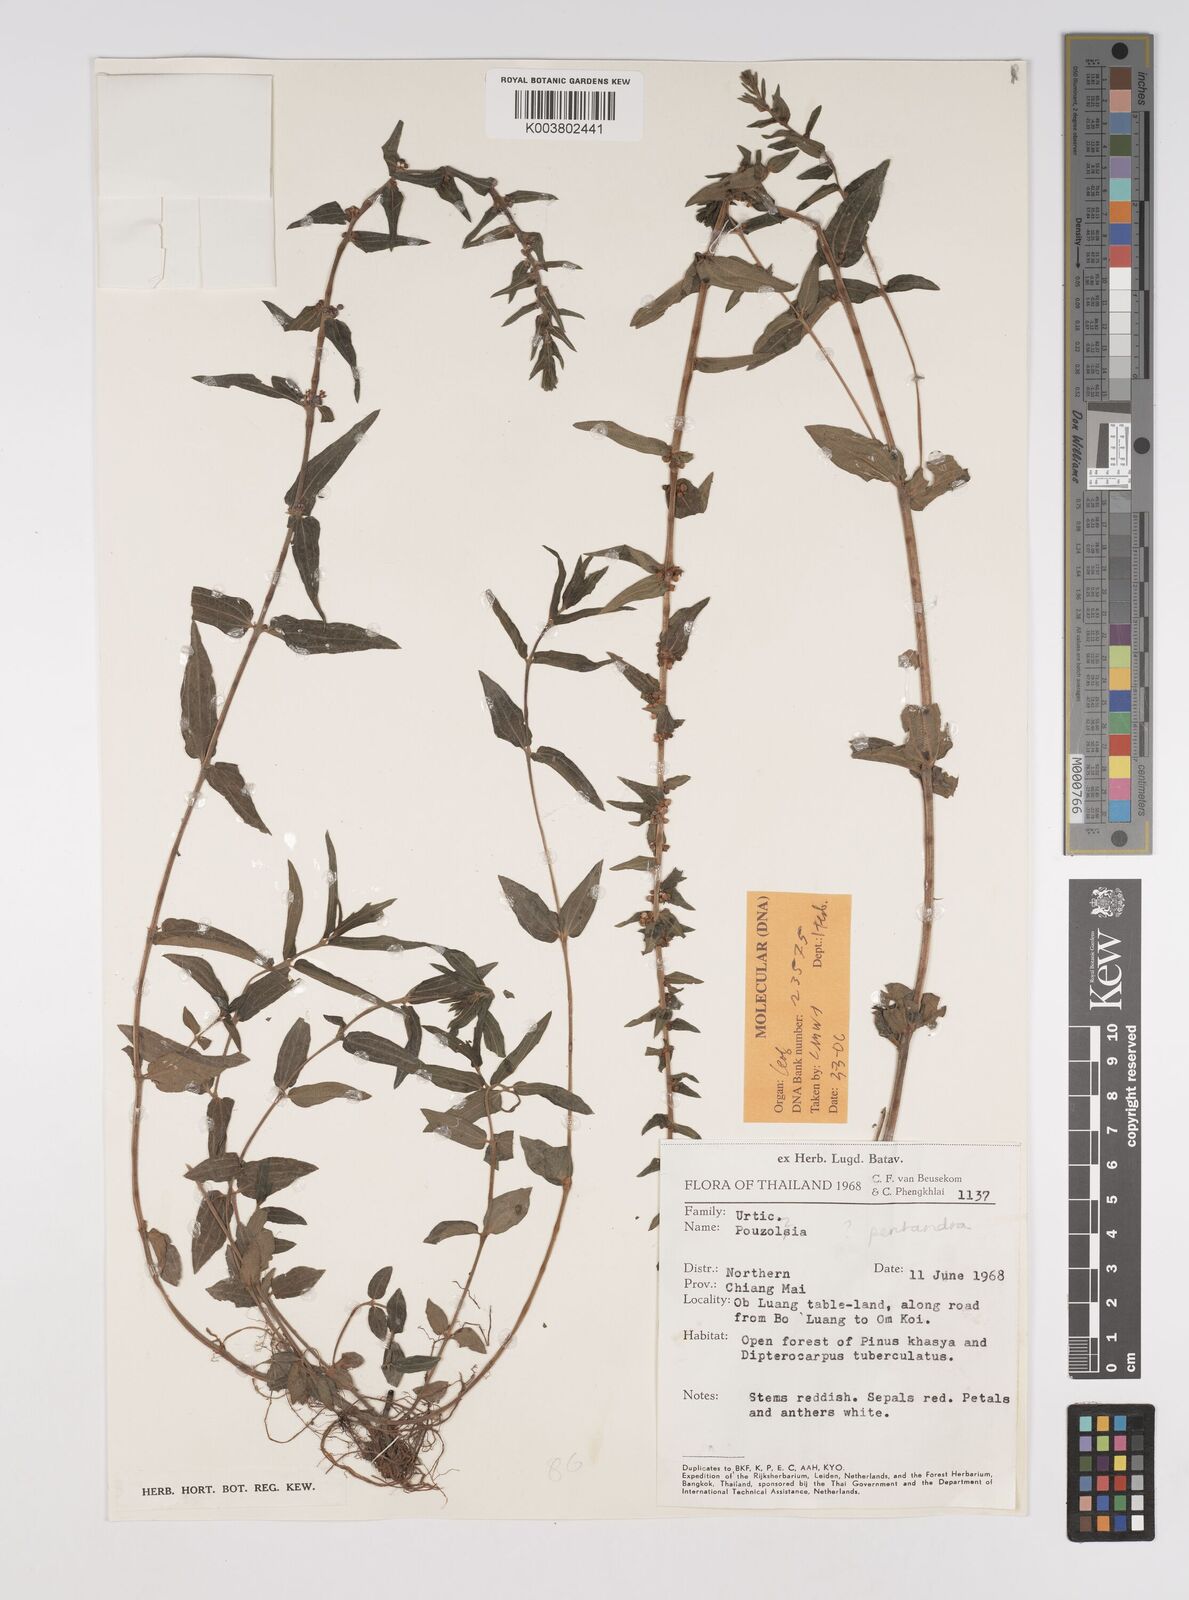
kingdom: Plantae
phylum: Tracheophyta
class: Magnoliopsida
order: Rosales
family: Urticaceae
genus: Gonostegia
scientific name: Gonostegia pentandra
